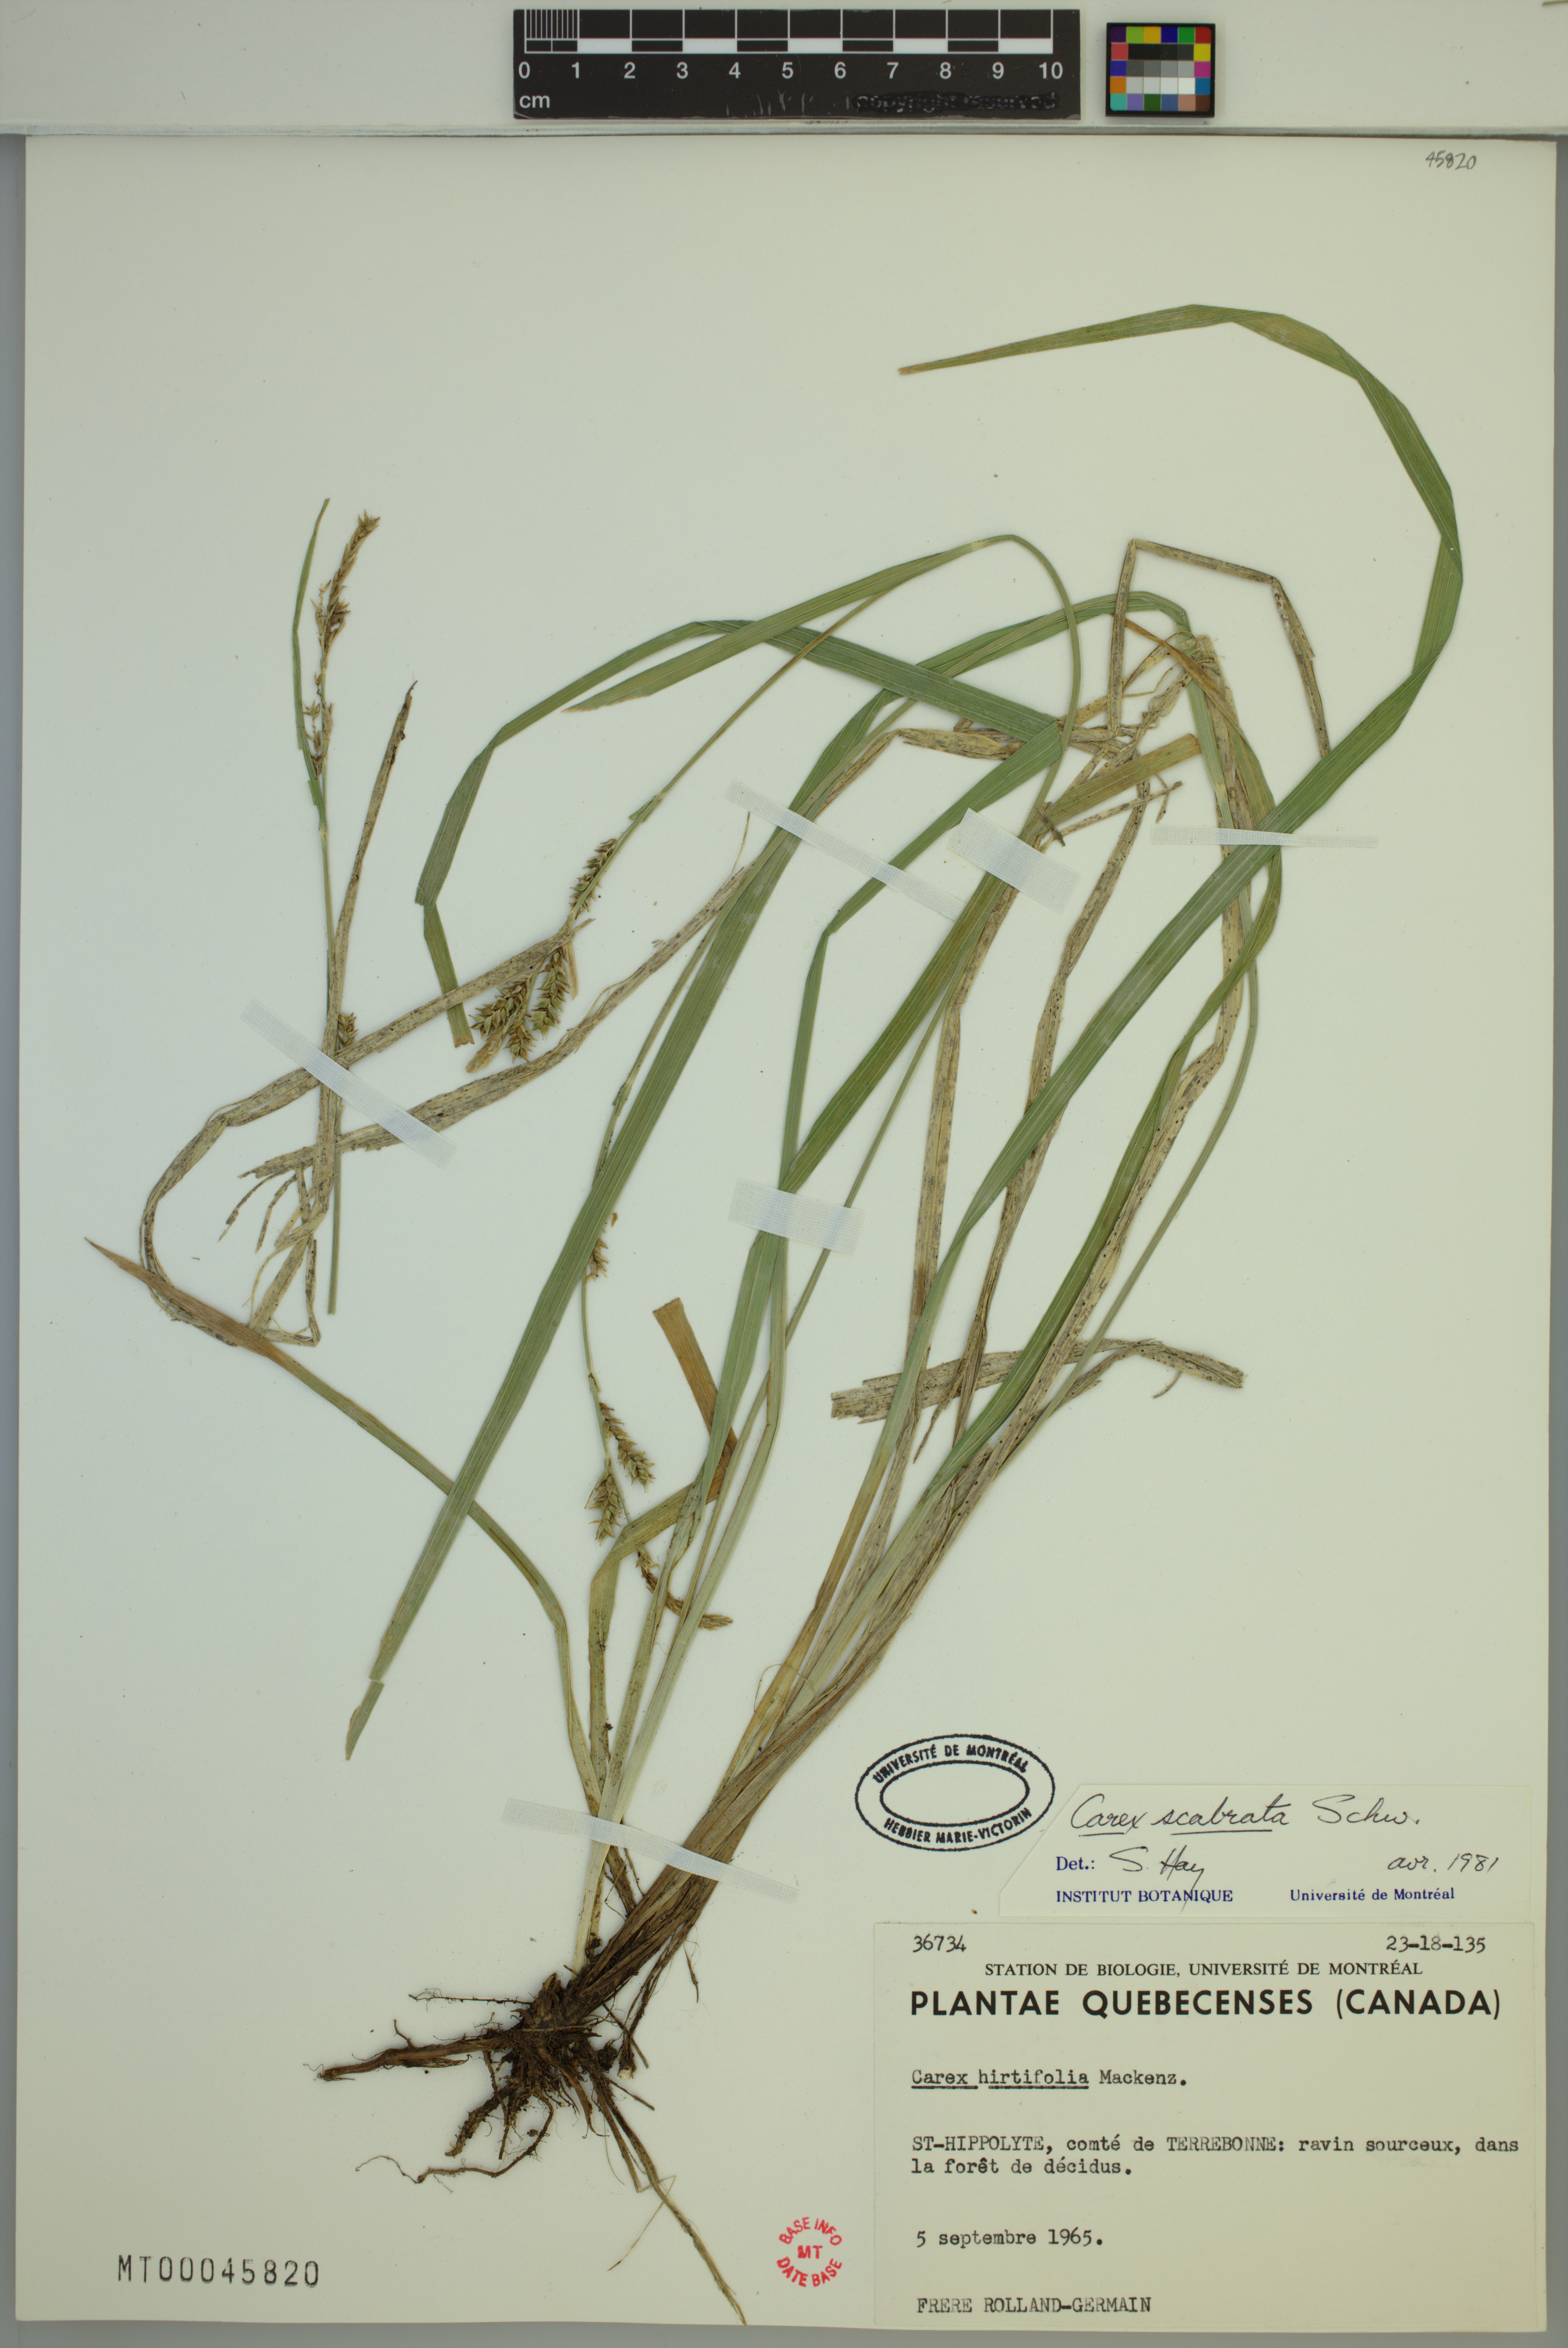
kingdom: Plantae
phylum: Tracheophyta
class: Liliopsida
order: Poales
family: Cyperaceae
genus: Carex
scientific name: Carex scabrata
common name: Eastern rough sedge
